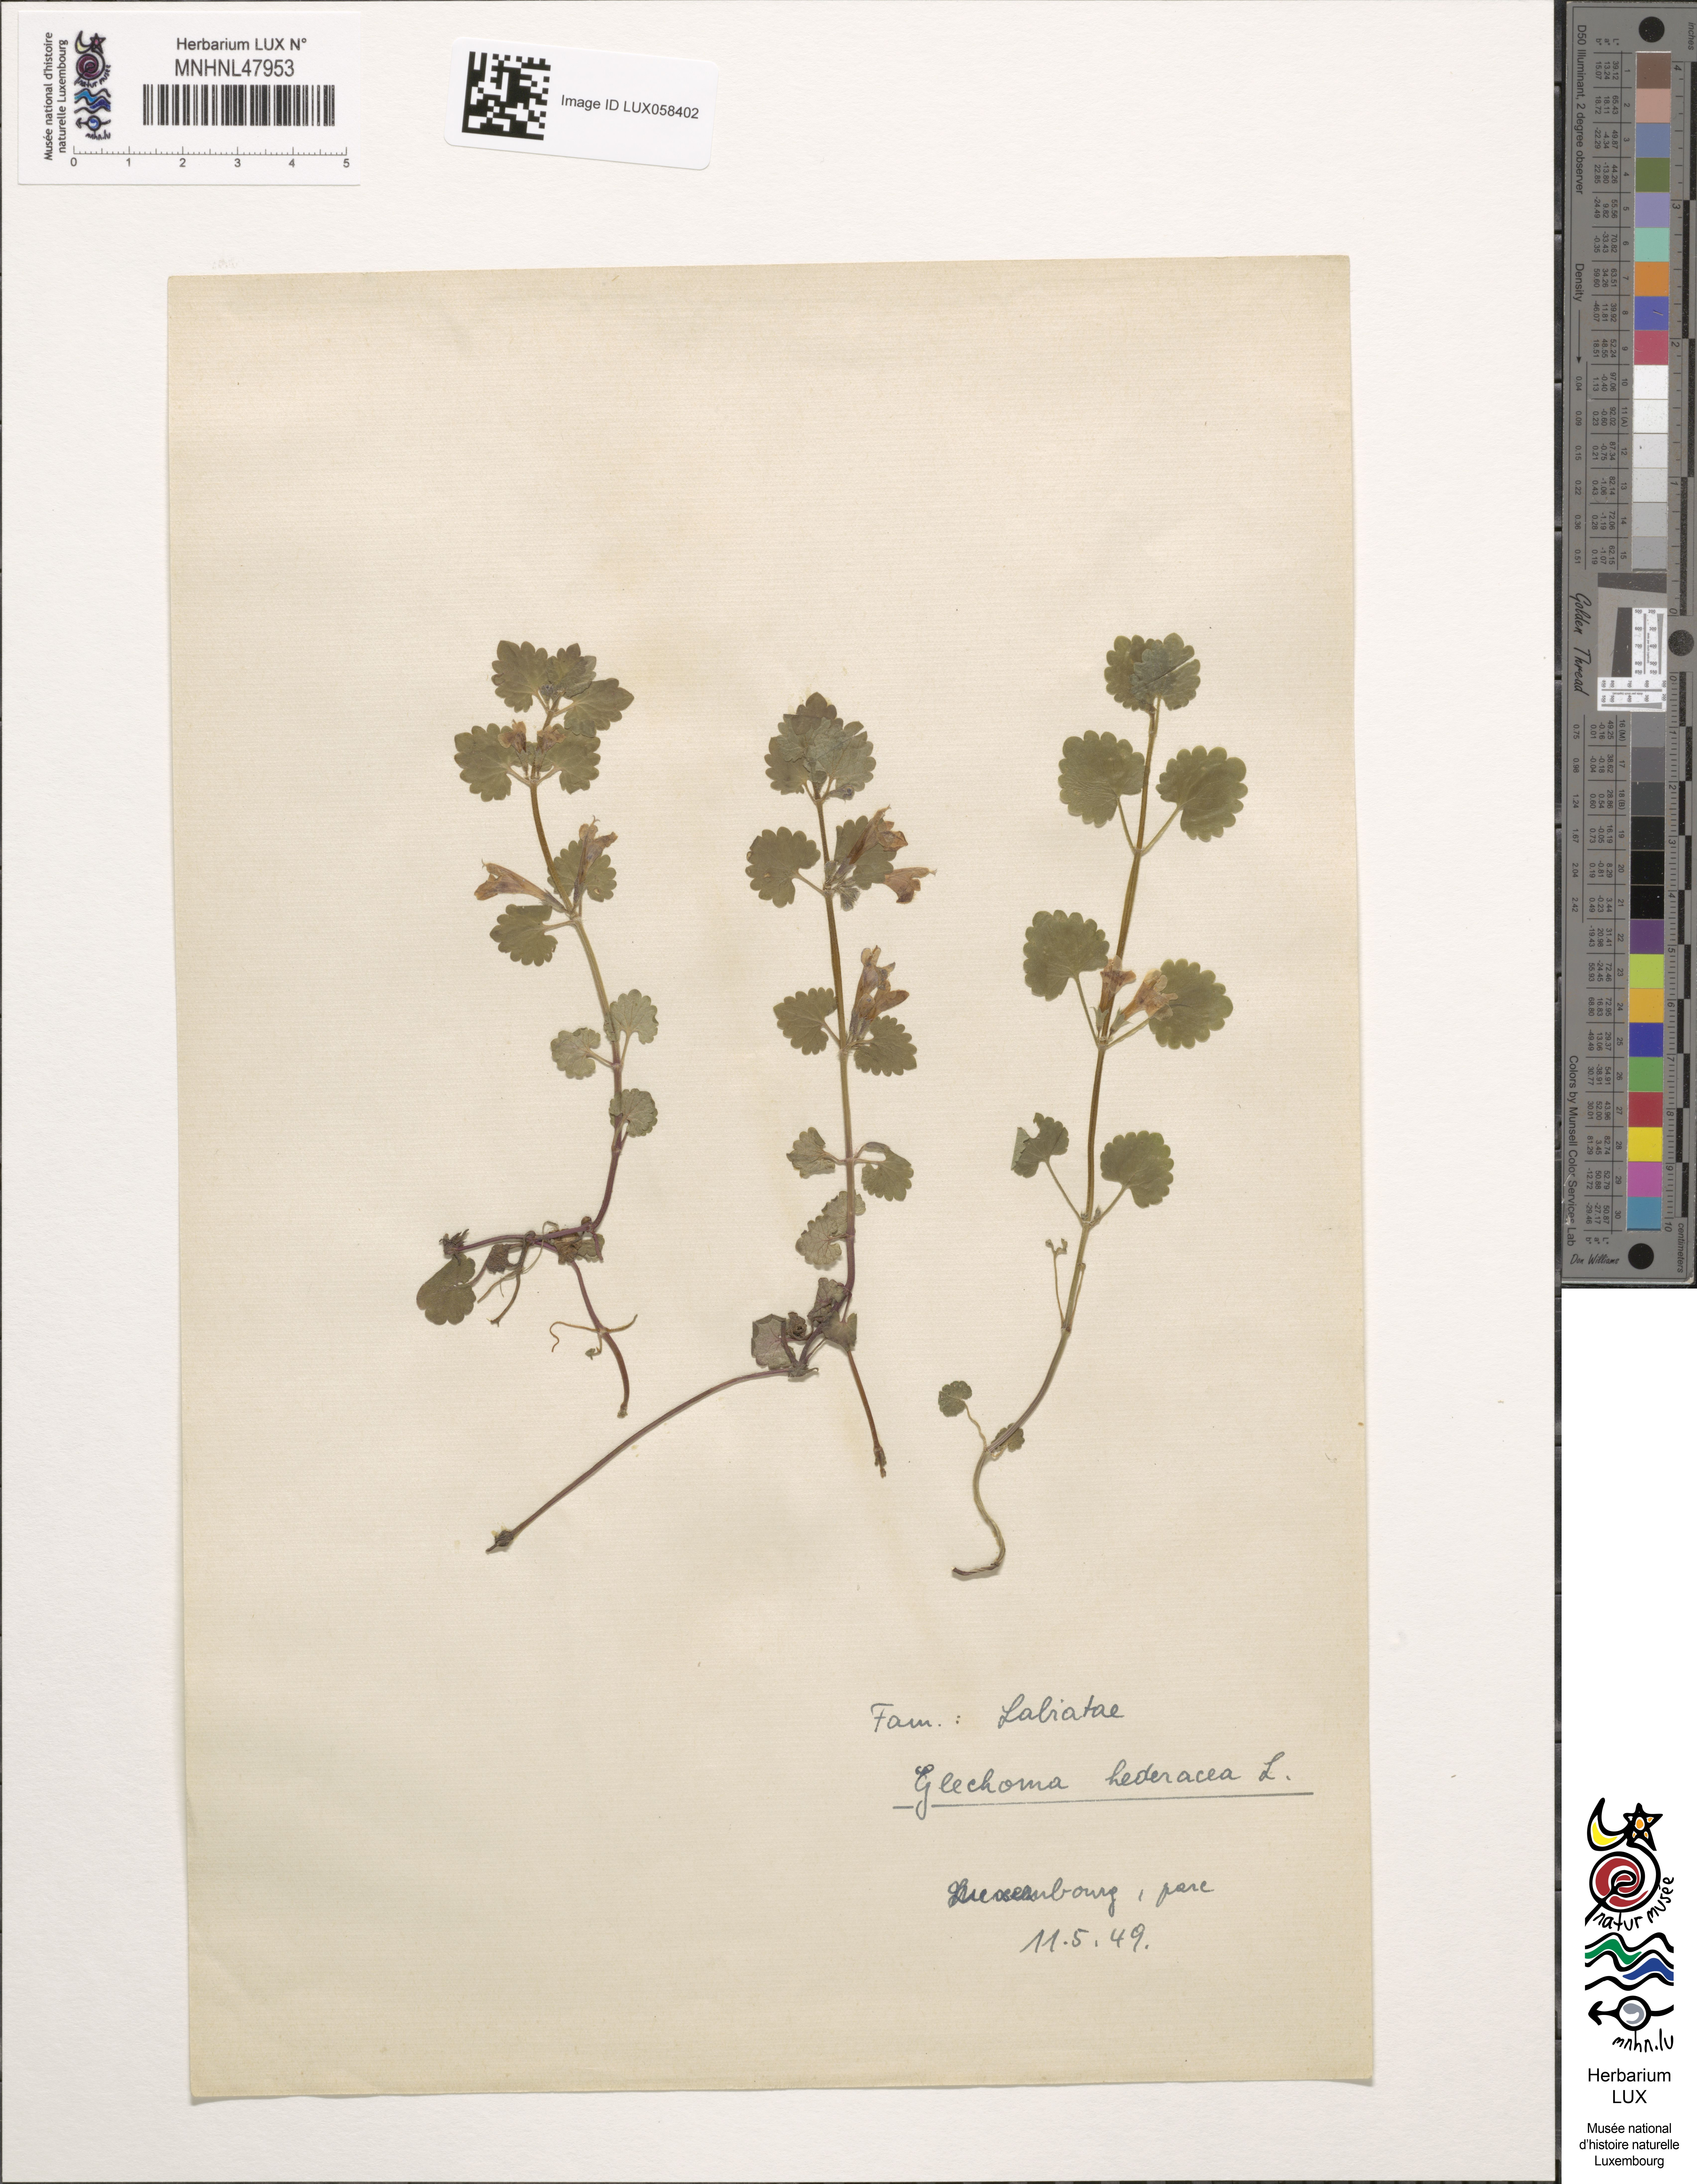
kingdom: Plantae
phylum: Tracheophyta
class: Magnoliopsida
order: Lamiales
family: Lamiaceae
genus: Glechoma
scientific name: Glechoma hederacea
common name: Ground ivy
